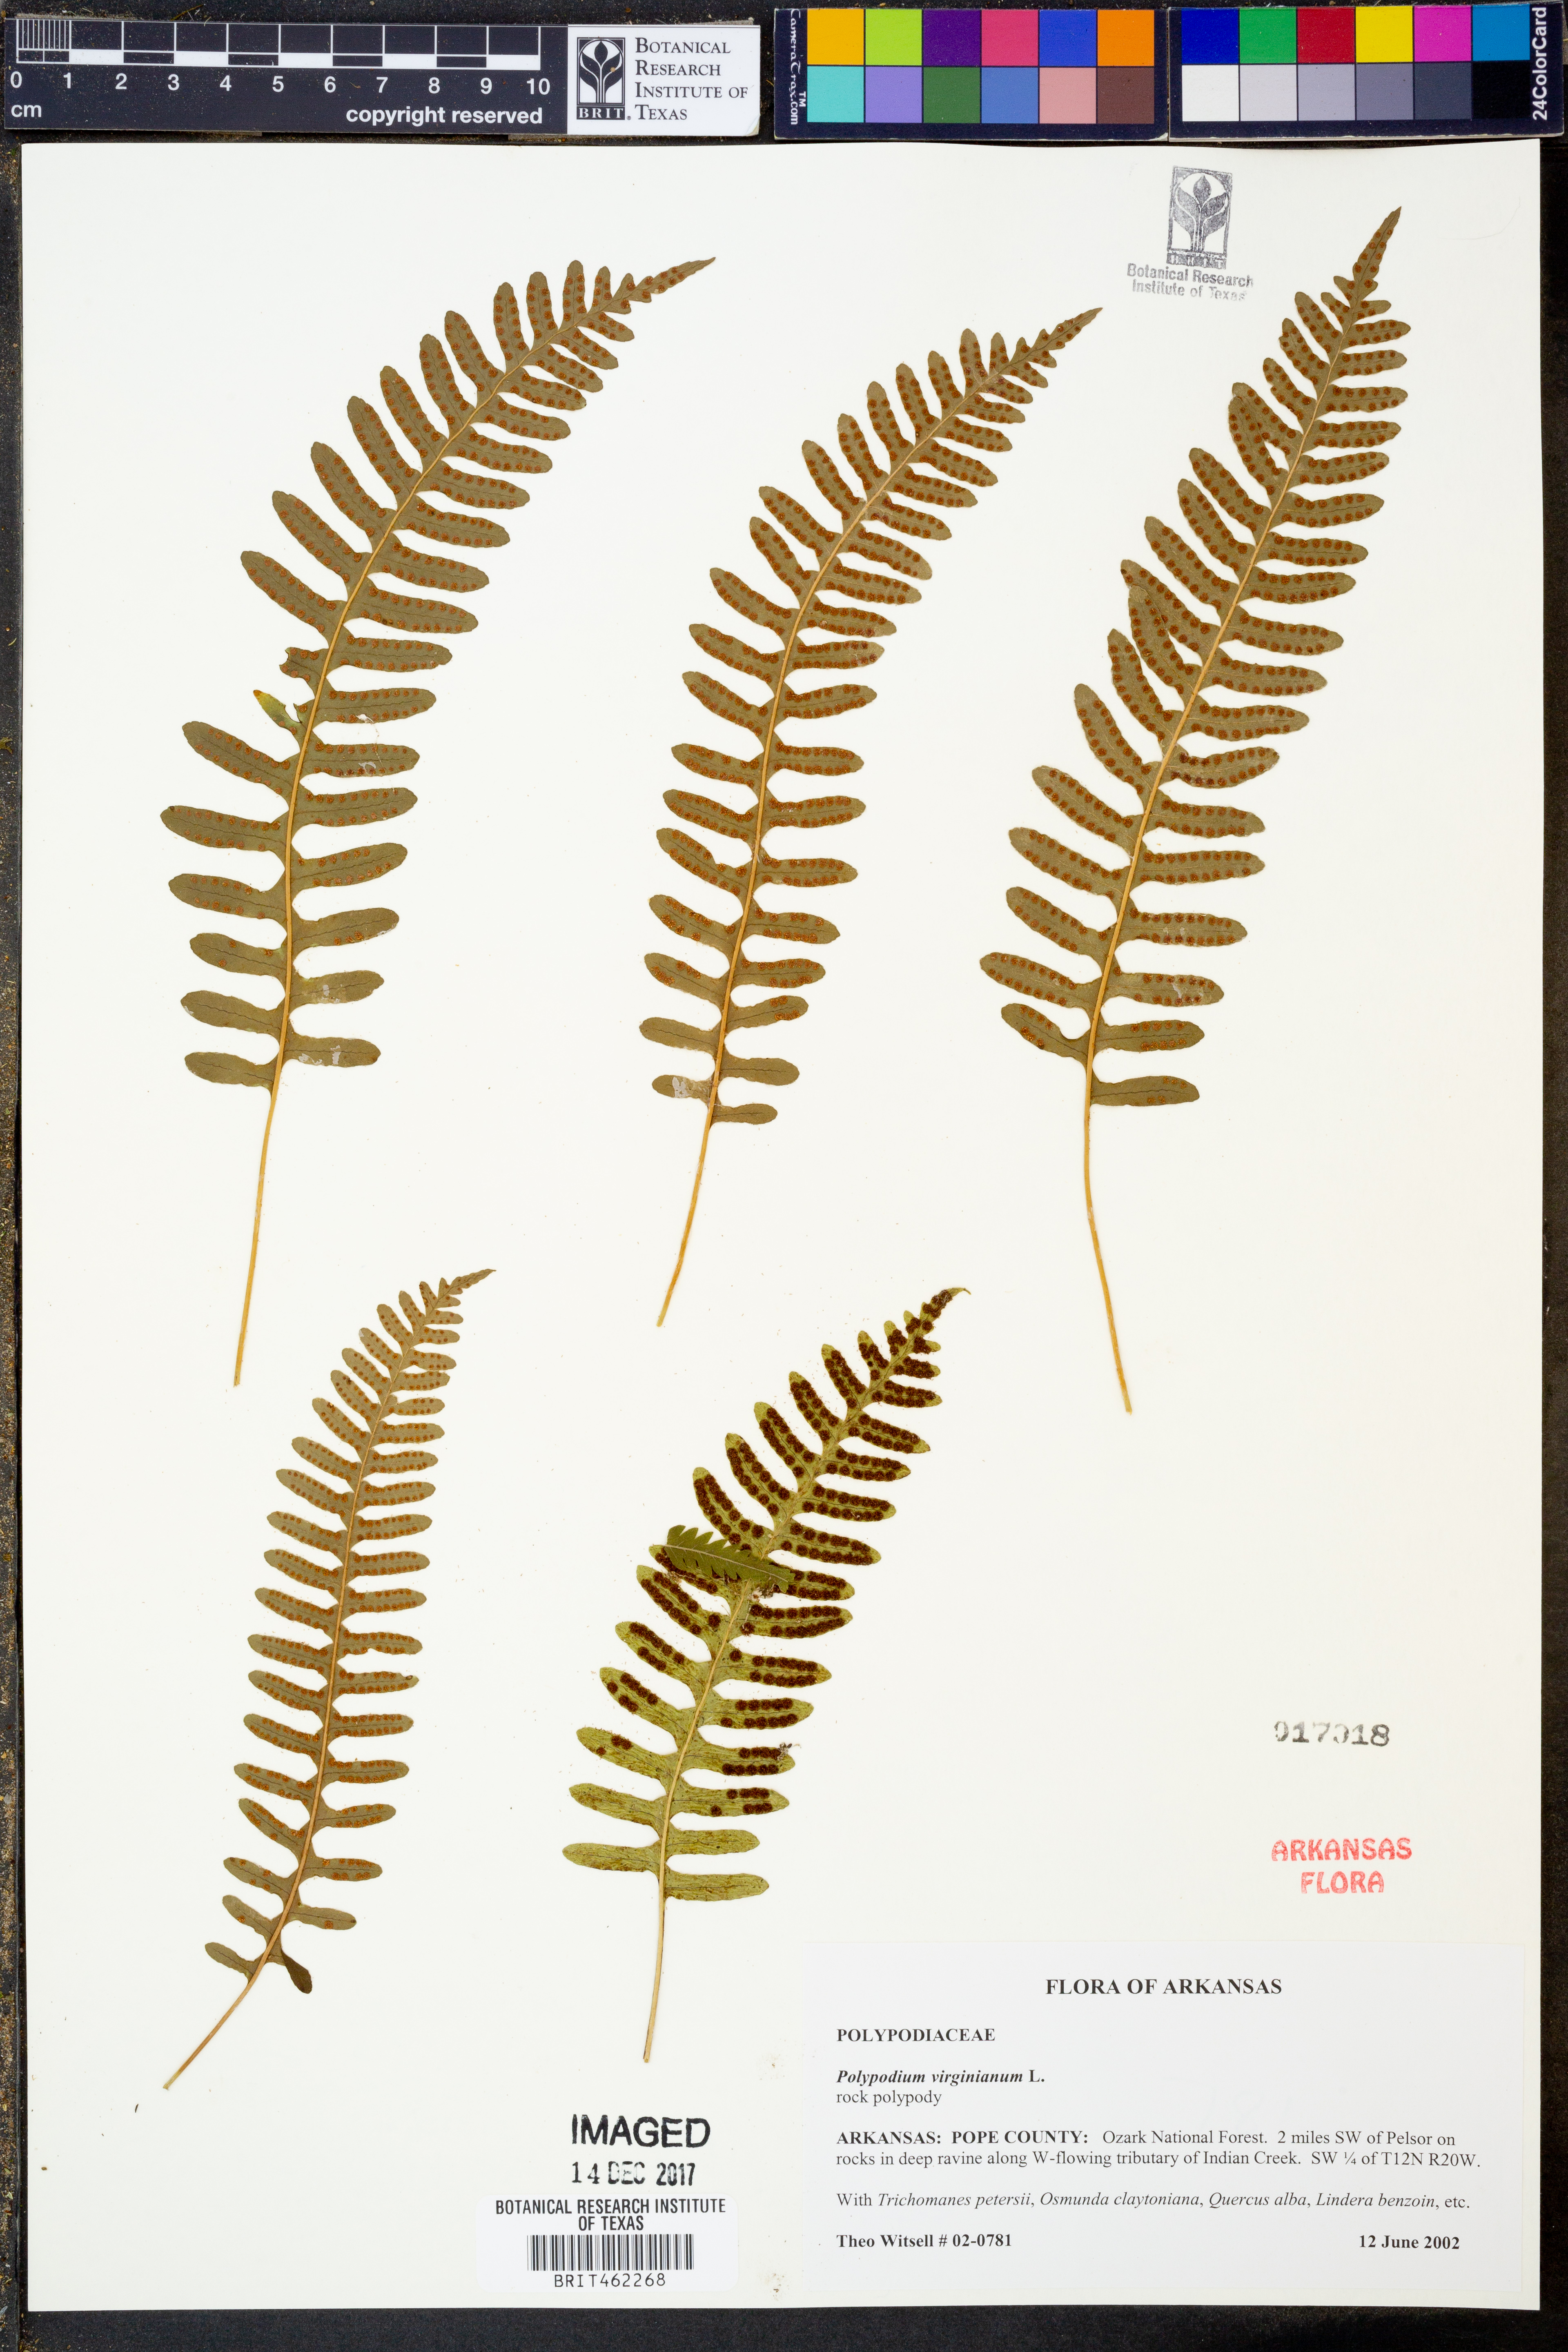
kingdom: Plantae
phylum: Tracheophyta
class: Polypodiopsida
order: Polypodiales
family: Polypodiaceae
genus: Polypodium
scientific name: Polypodium virginianum
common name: American wall fern
